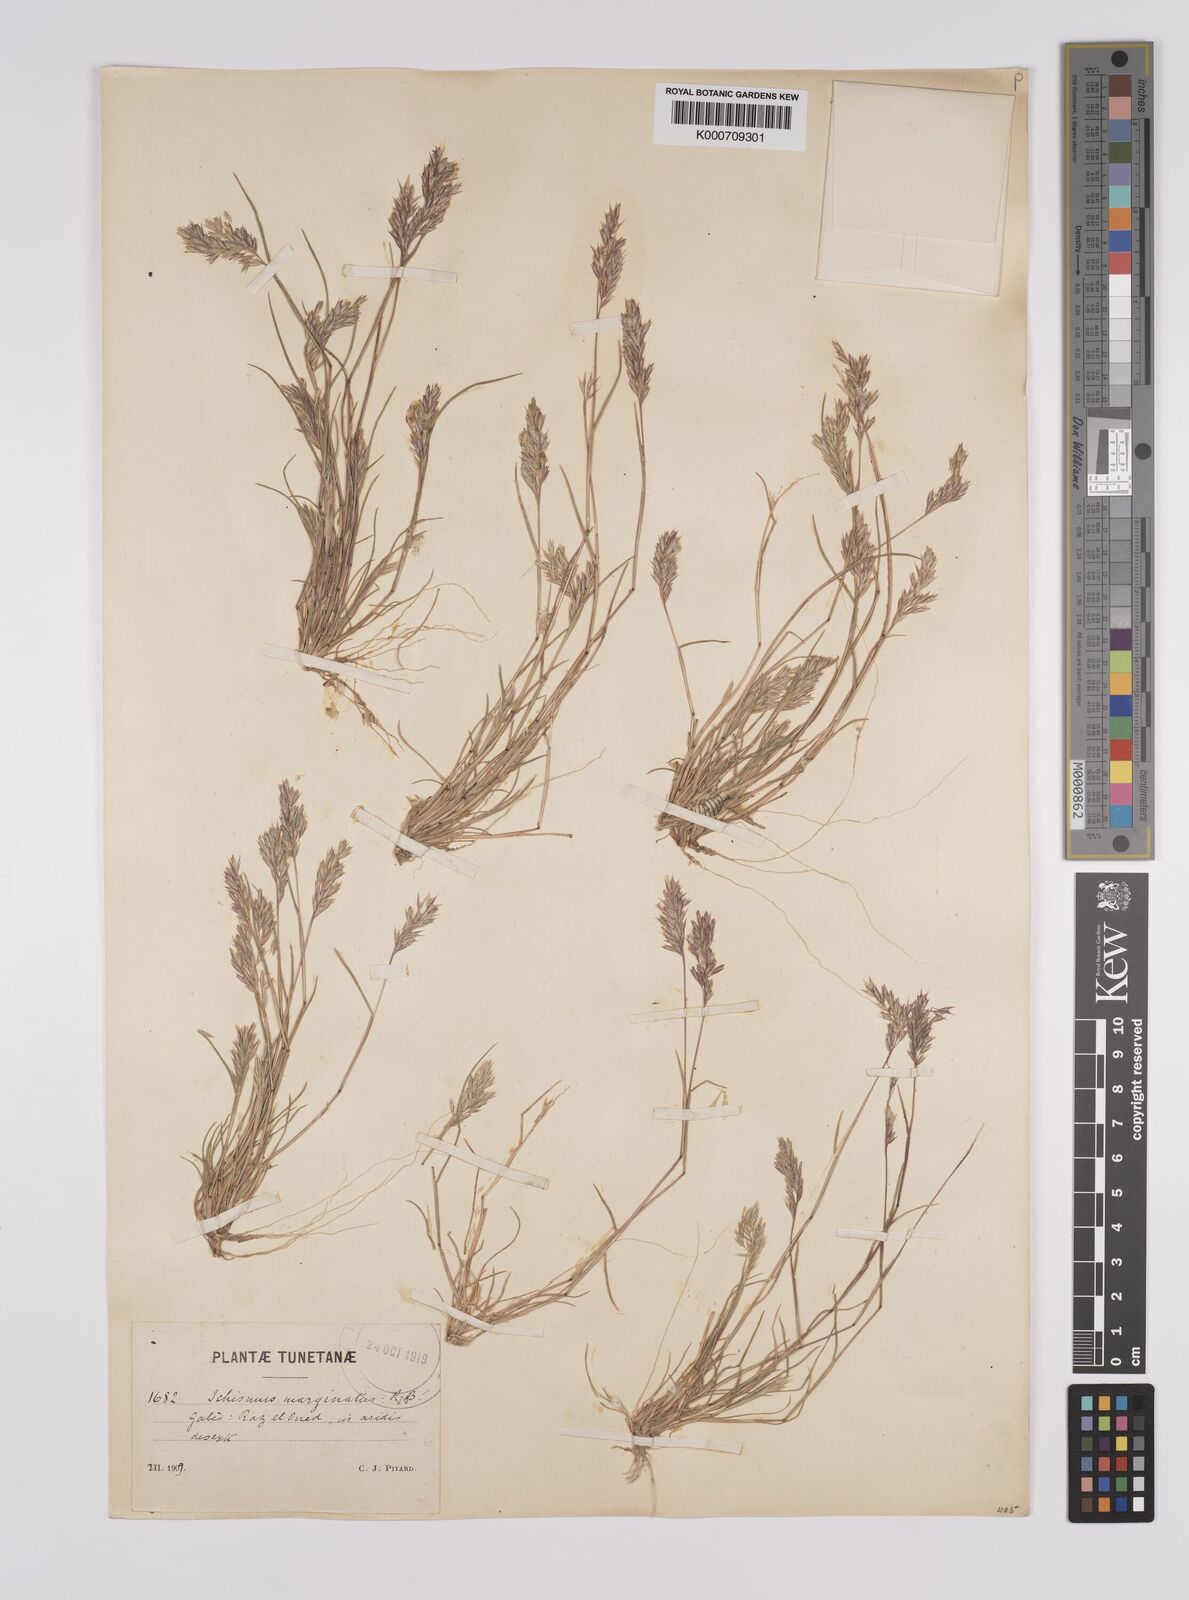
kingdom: Plantae
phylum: Tracheophyta
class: Liliopsida
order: Poales
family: Poaceae
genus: Schismus
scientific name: Schismus barbatus
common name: Kelch-grass
